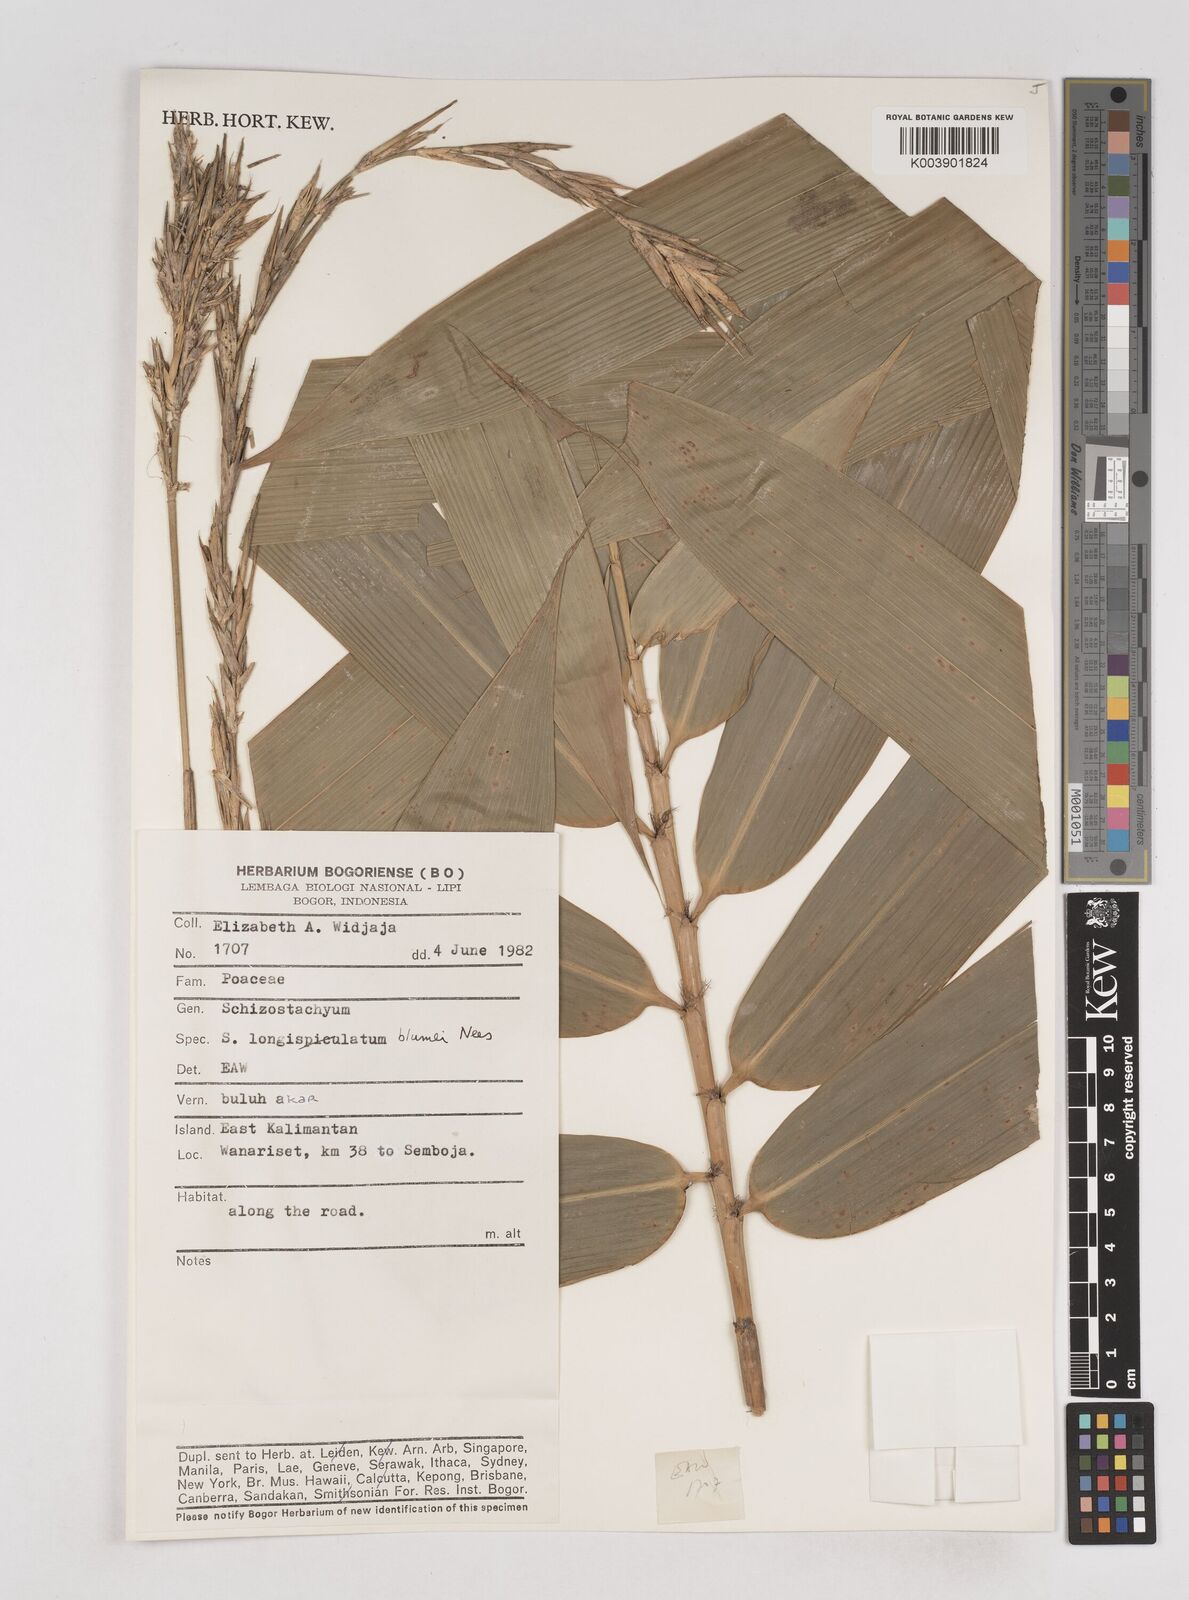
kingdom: Plantae
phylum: Tracheophyta
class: Liliopsida
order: Poales
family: Poaceae
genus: Schizostachyum
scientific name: Schizostachyum blumei
